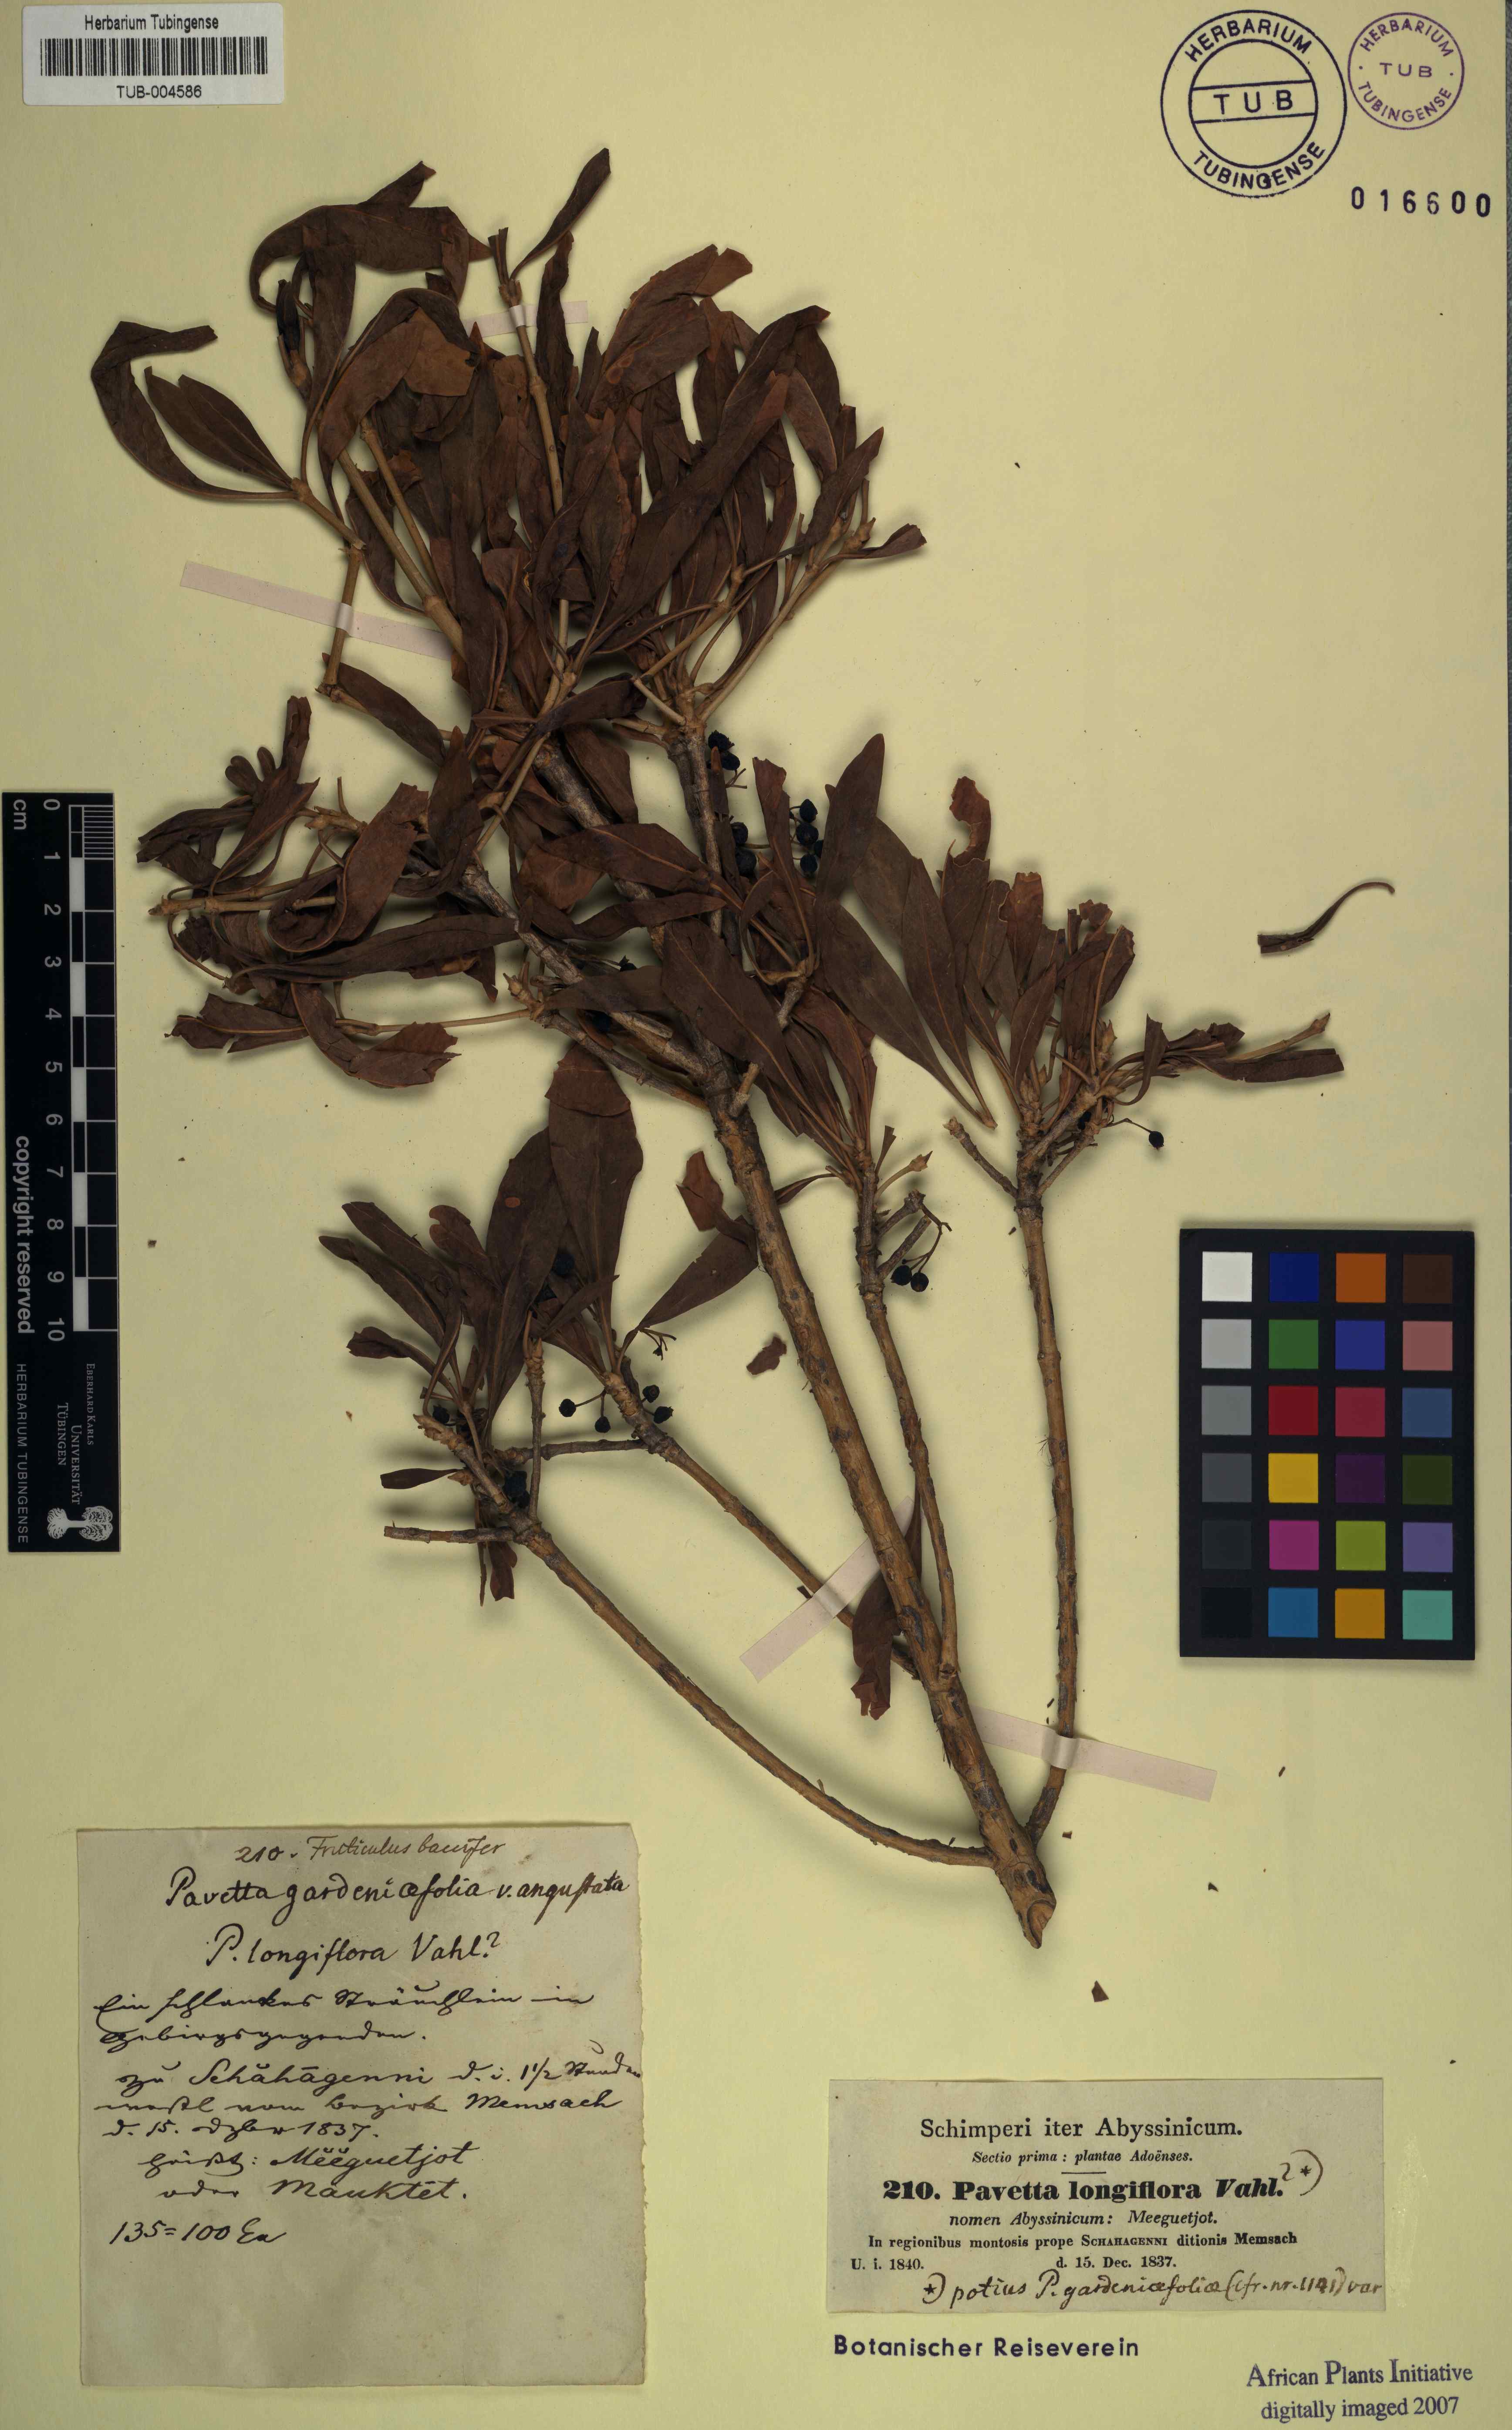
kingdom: Plantae
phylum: Tracheophyta
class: Magnoliopsida
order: Gentianales
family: Rubiaceae
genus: Pavetta
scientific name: Pavetta longiflora
